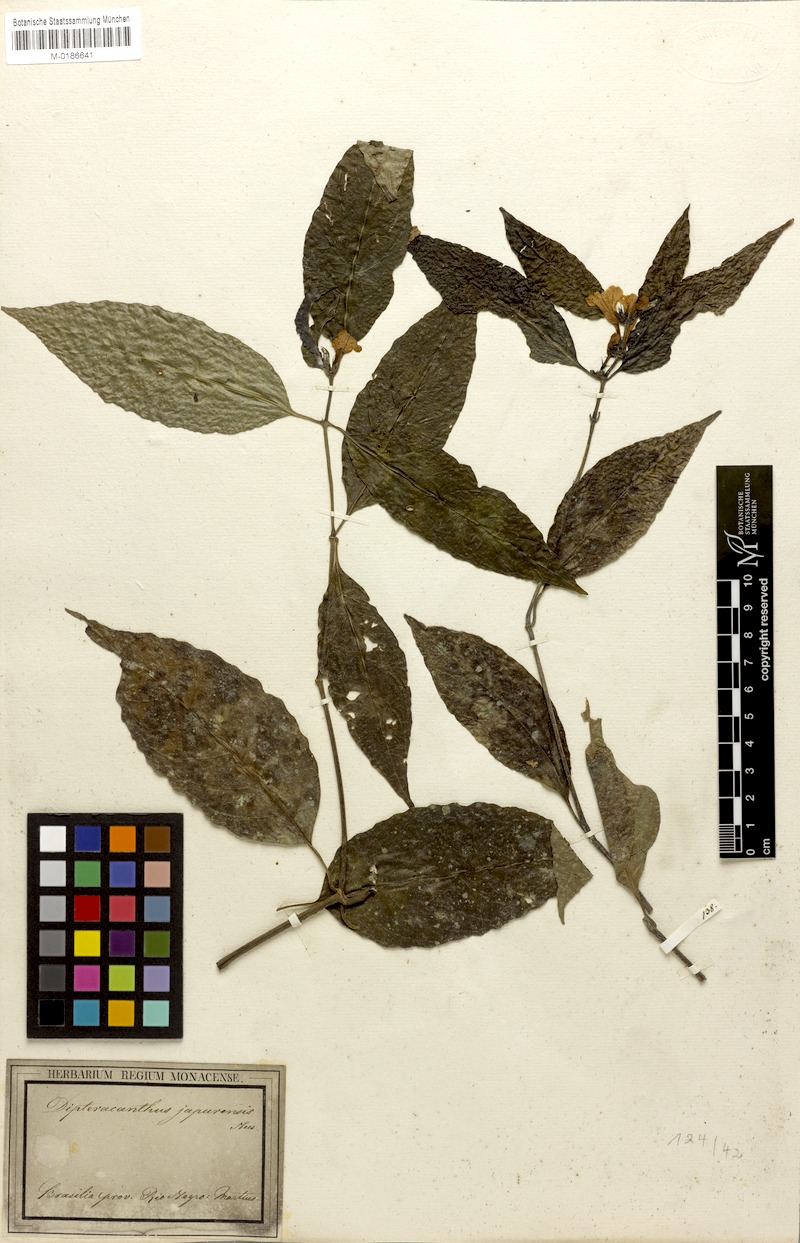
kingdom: Plantae
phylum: Tracheophyta
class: Magnoliopsida
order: Lamiales
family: Acanthaceae
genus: Ruellia
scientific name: Ruellia terminalis
